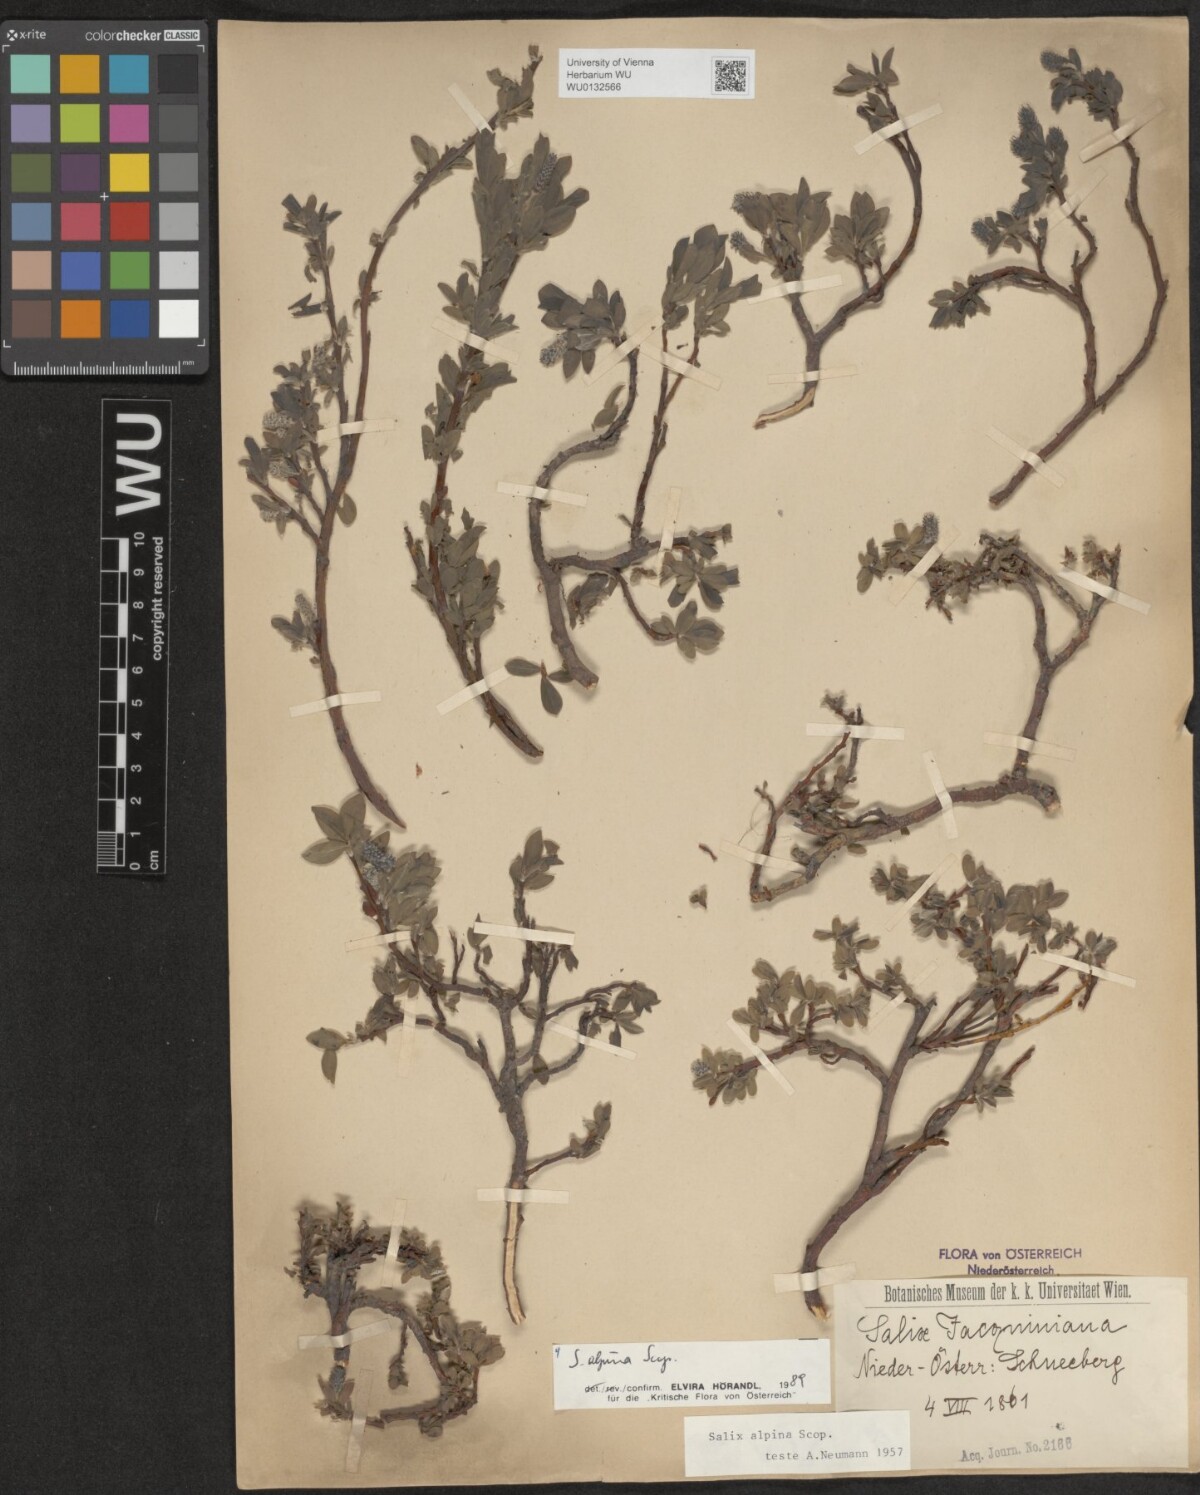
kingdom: Plantae
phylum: Tracheophyta
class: Magnoliopsida
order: Malpighiales
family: Salicaceae
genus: Salix
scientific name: Salix alpina
